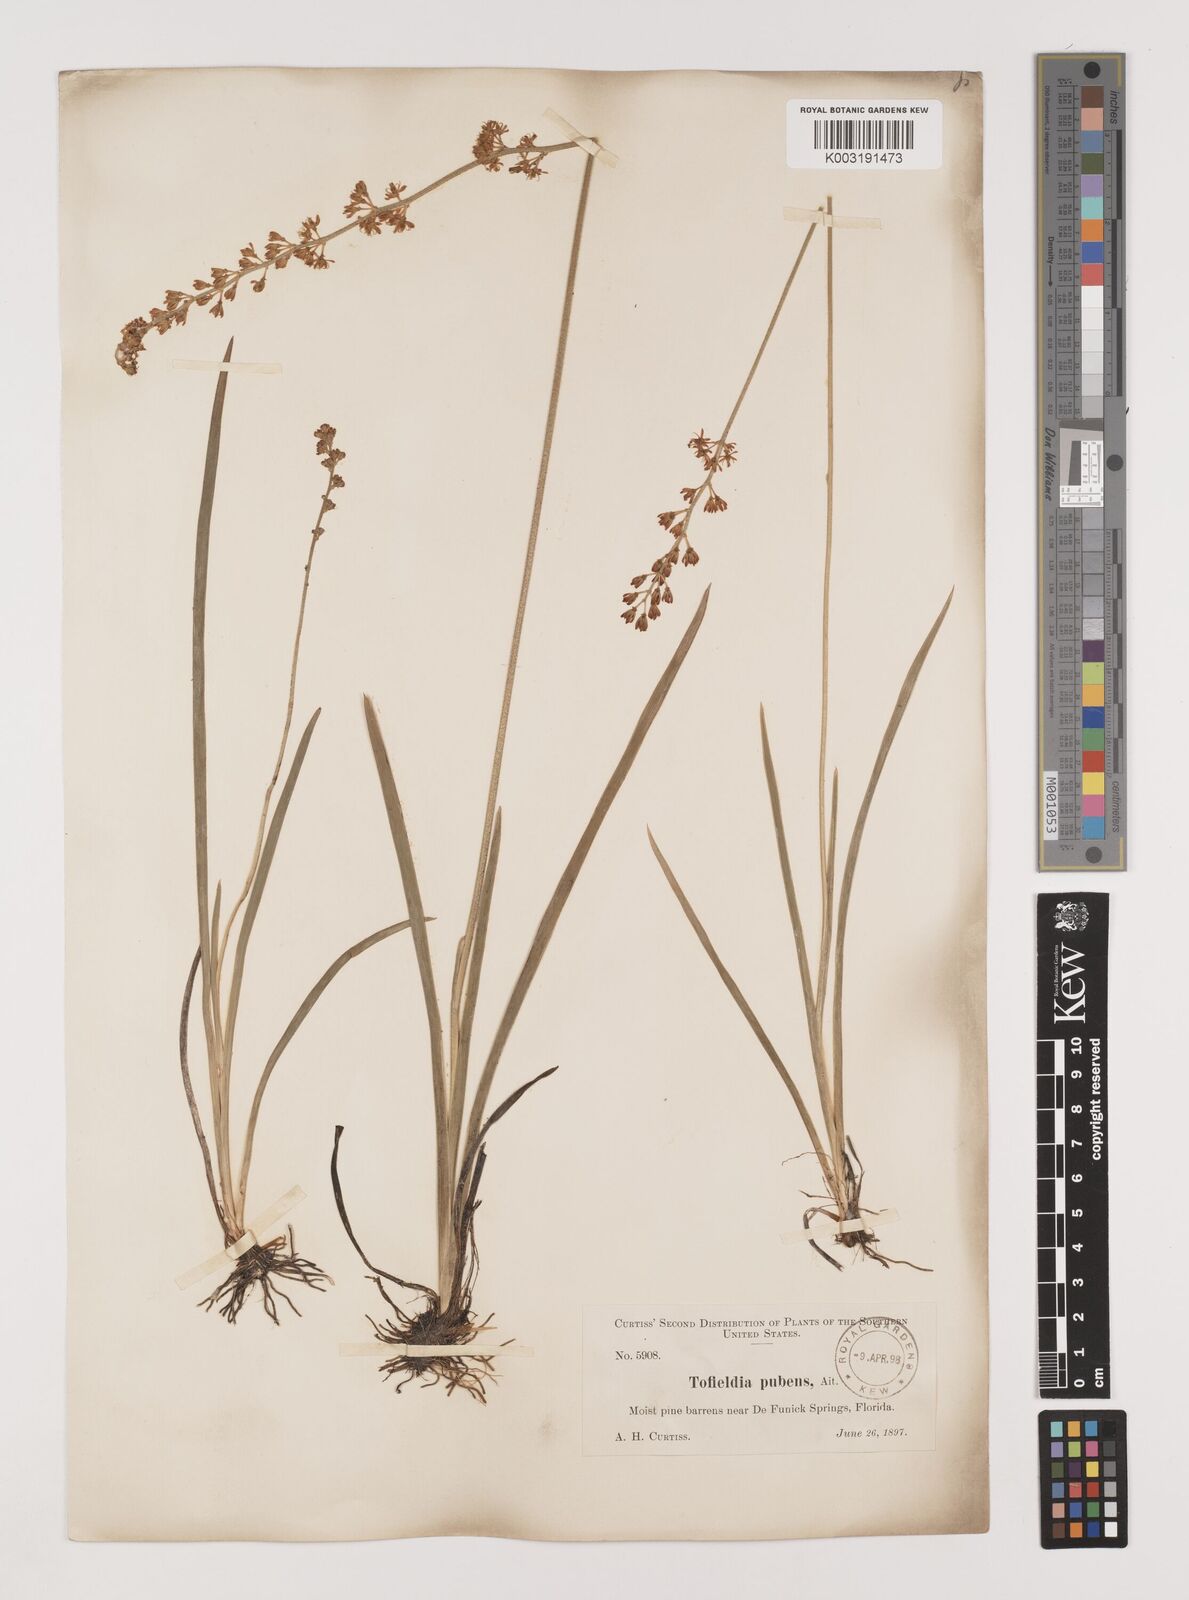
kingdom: Plantae
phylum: Tracheophyta
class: Liliopsida
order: Alismatales
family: Tofieldiaceae
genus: Triantha
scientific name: Triantha racemosa
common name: Coastal false asphodel
